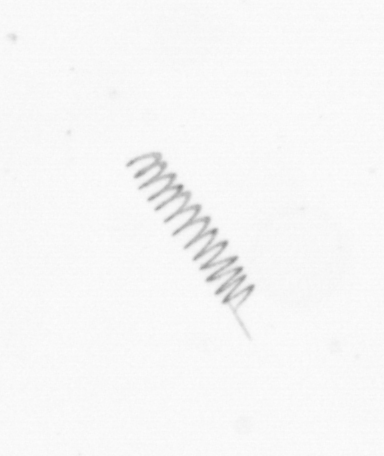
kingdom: Chromista
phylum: Ochrophyta
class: Bacillariophyceae
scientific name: Bacillariophyceae
